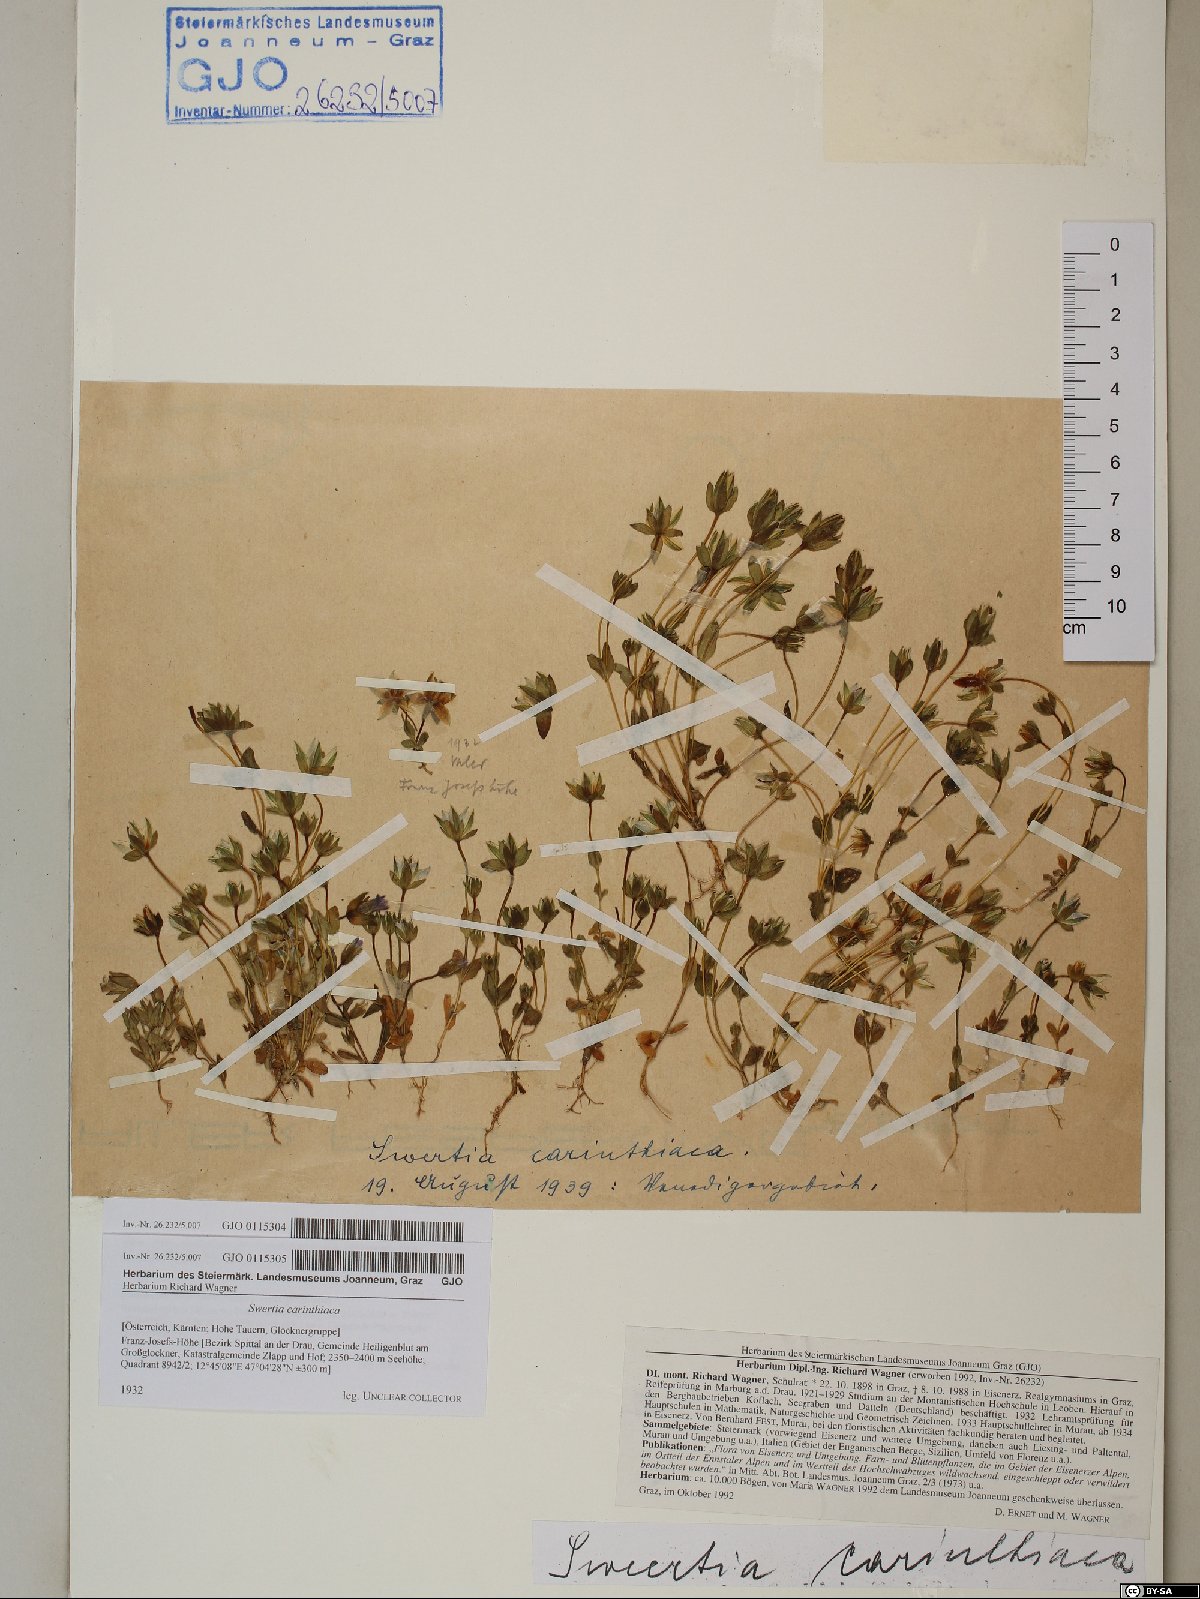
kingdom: Plantae
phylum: Tracheophyta
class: Magnoliopsida
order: Gentianales
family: Gentianaceae
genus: Lomatogonium
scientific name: Lomatogonium carinthiacum
